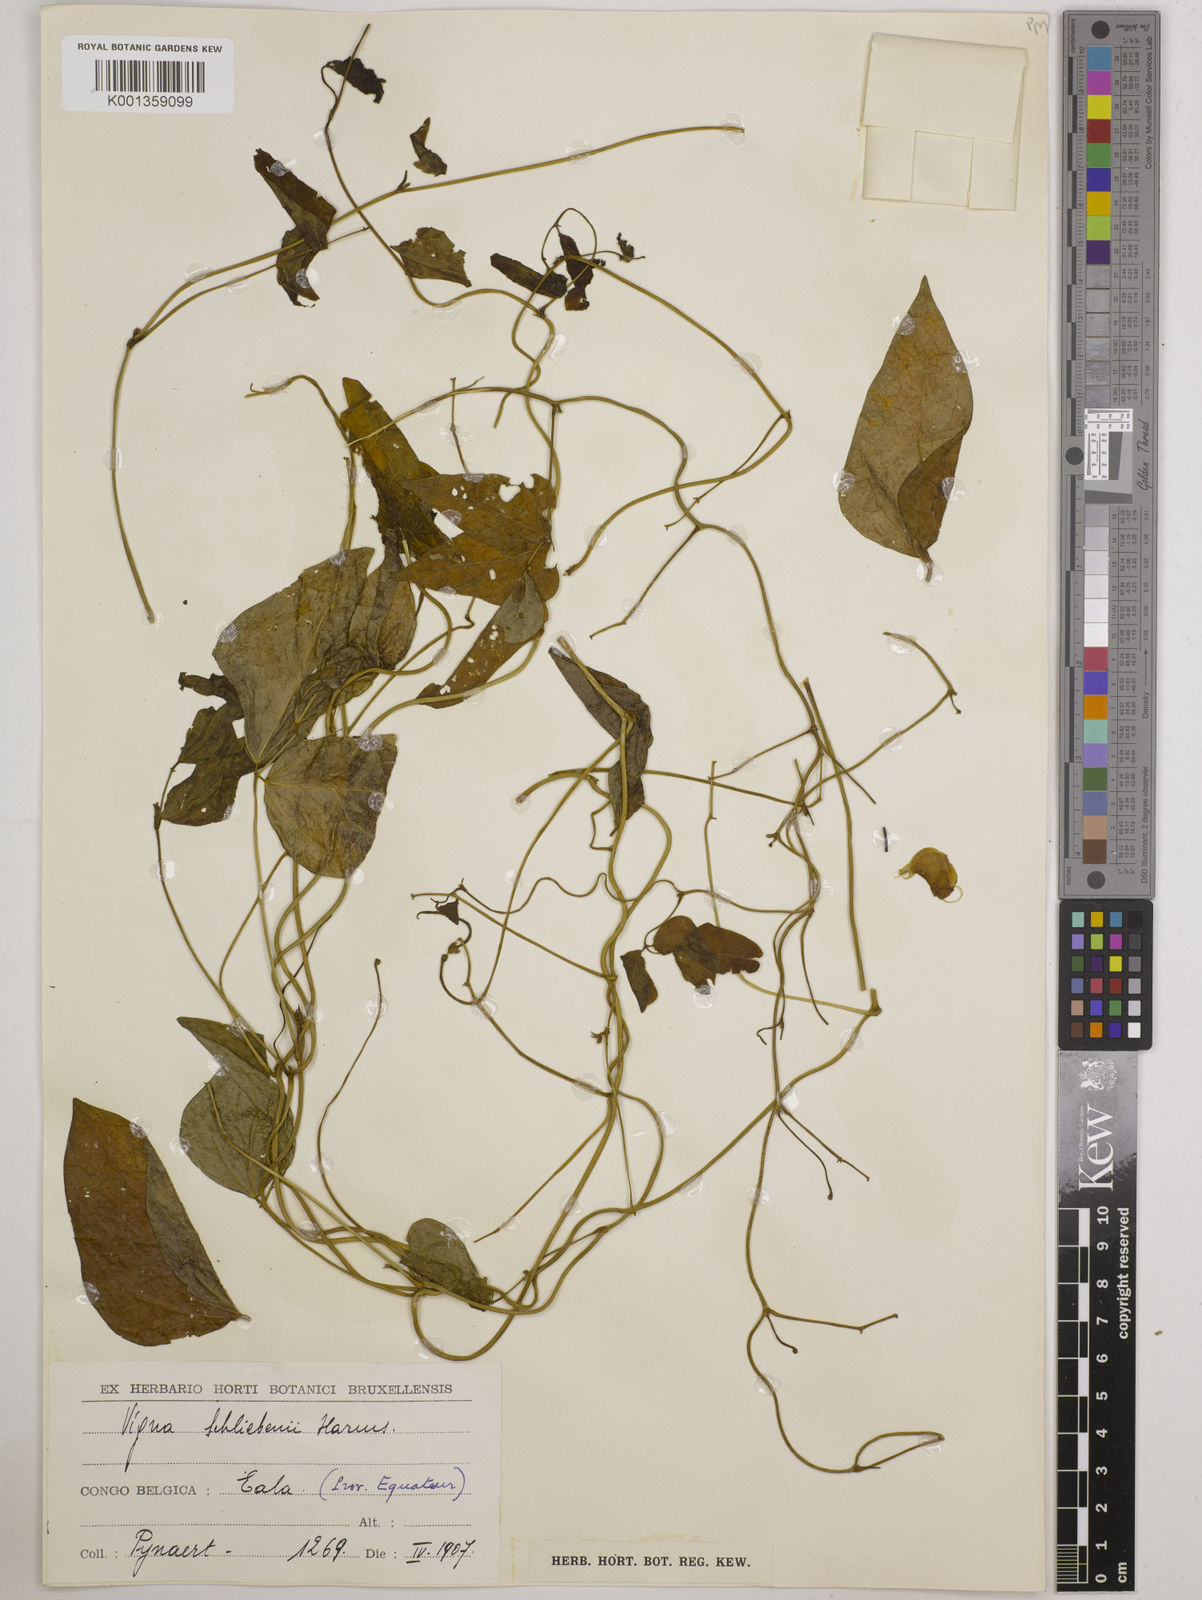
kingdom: Plantae
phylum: Tracheophyta
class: Magnoliopsida
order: Fabales
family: Fabaceae
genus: Vigna
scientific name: Vigna kirkii
